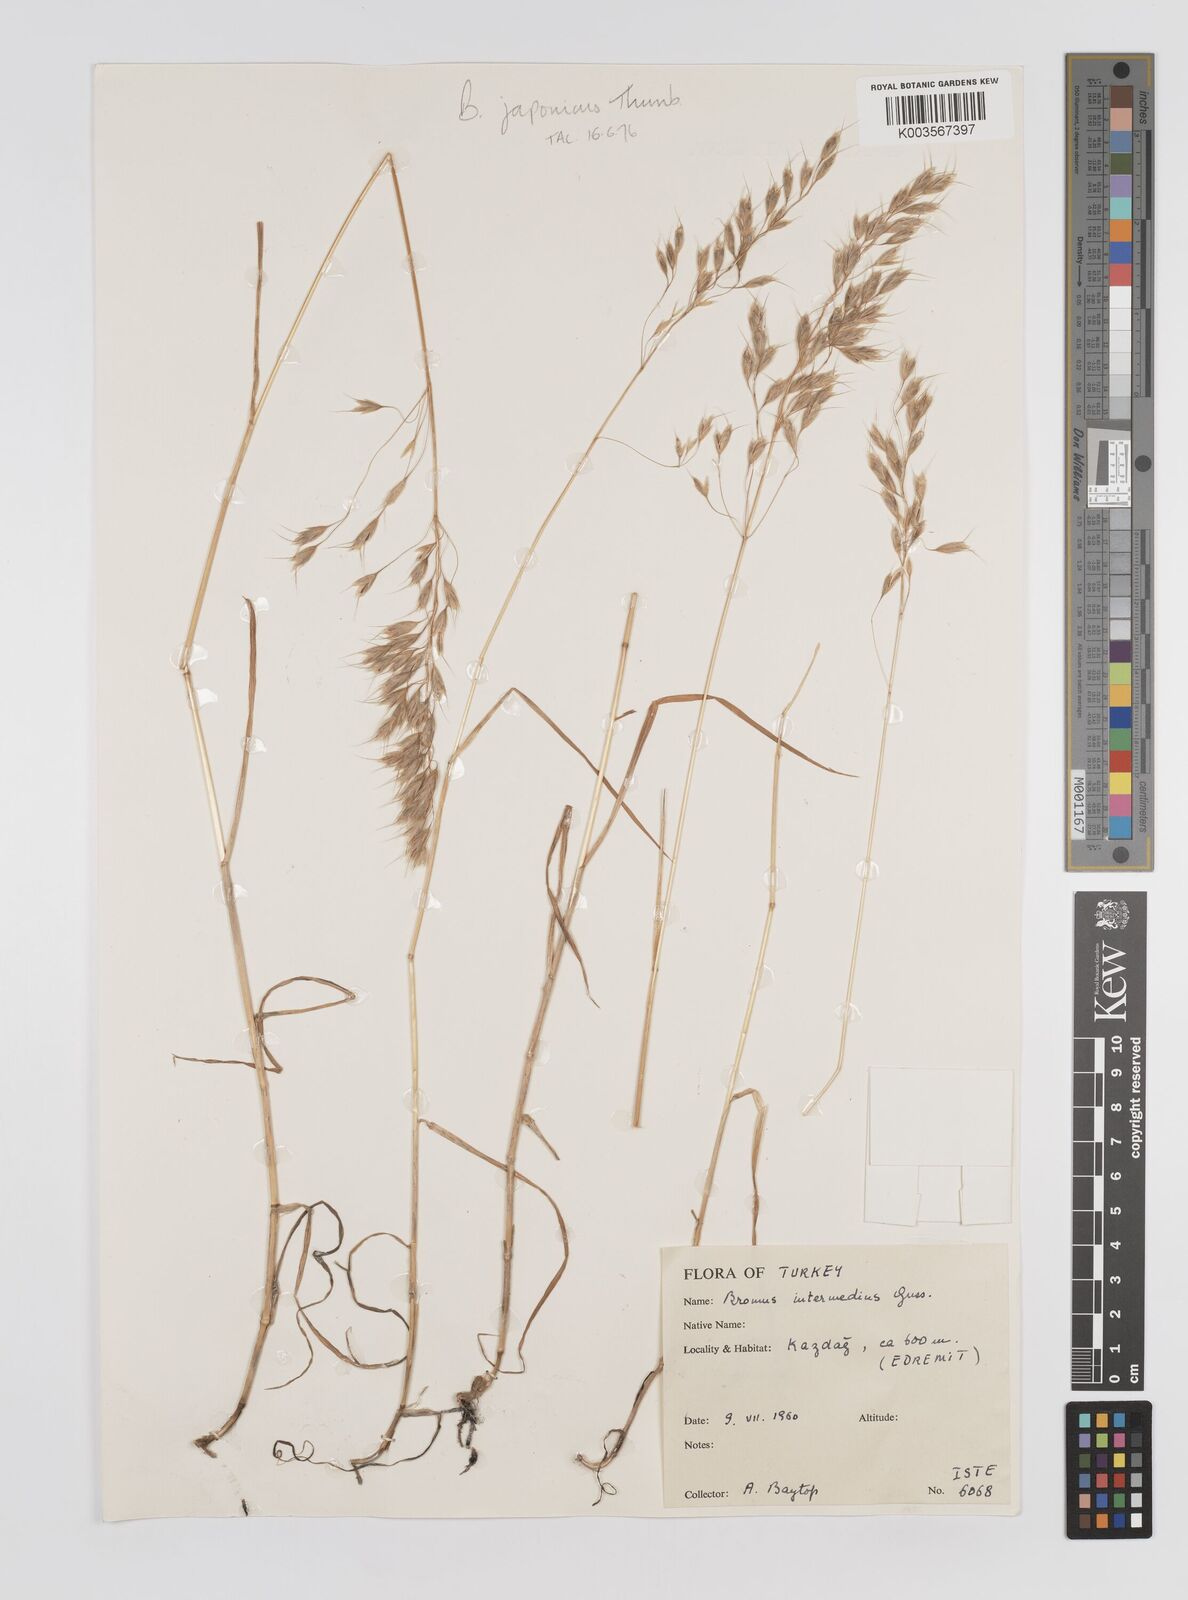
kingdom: Plantae
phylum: Tracheophyta
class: Liliopsida
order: Poales
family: Poaceae
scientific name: Poaceae
